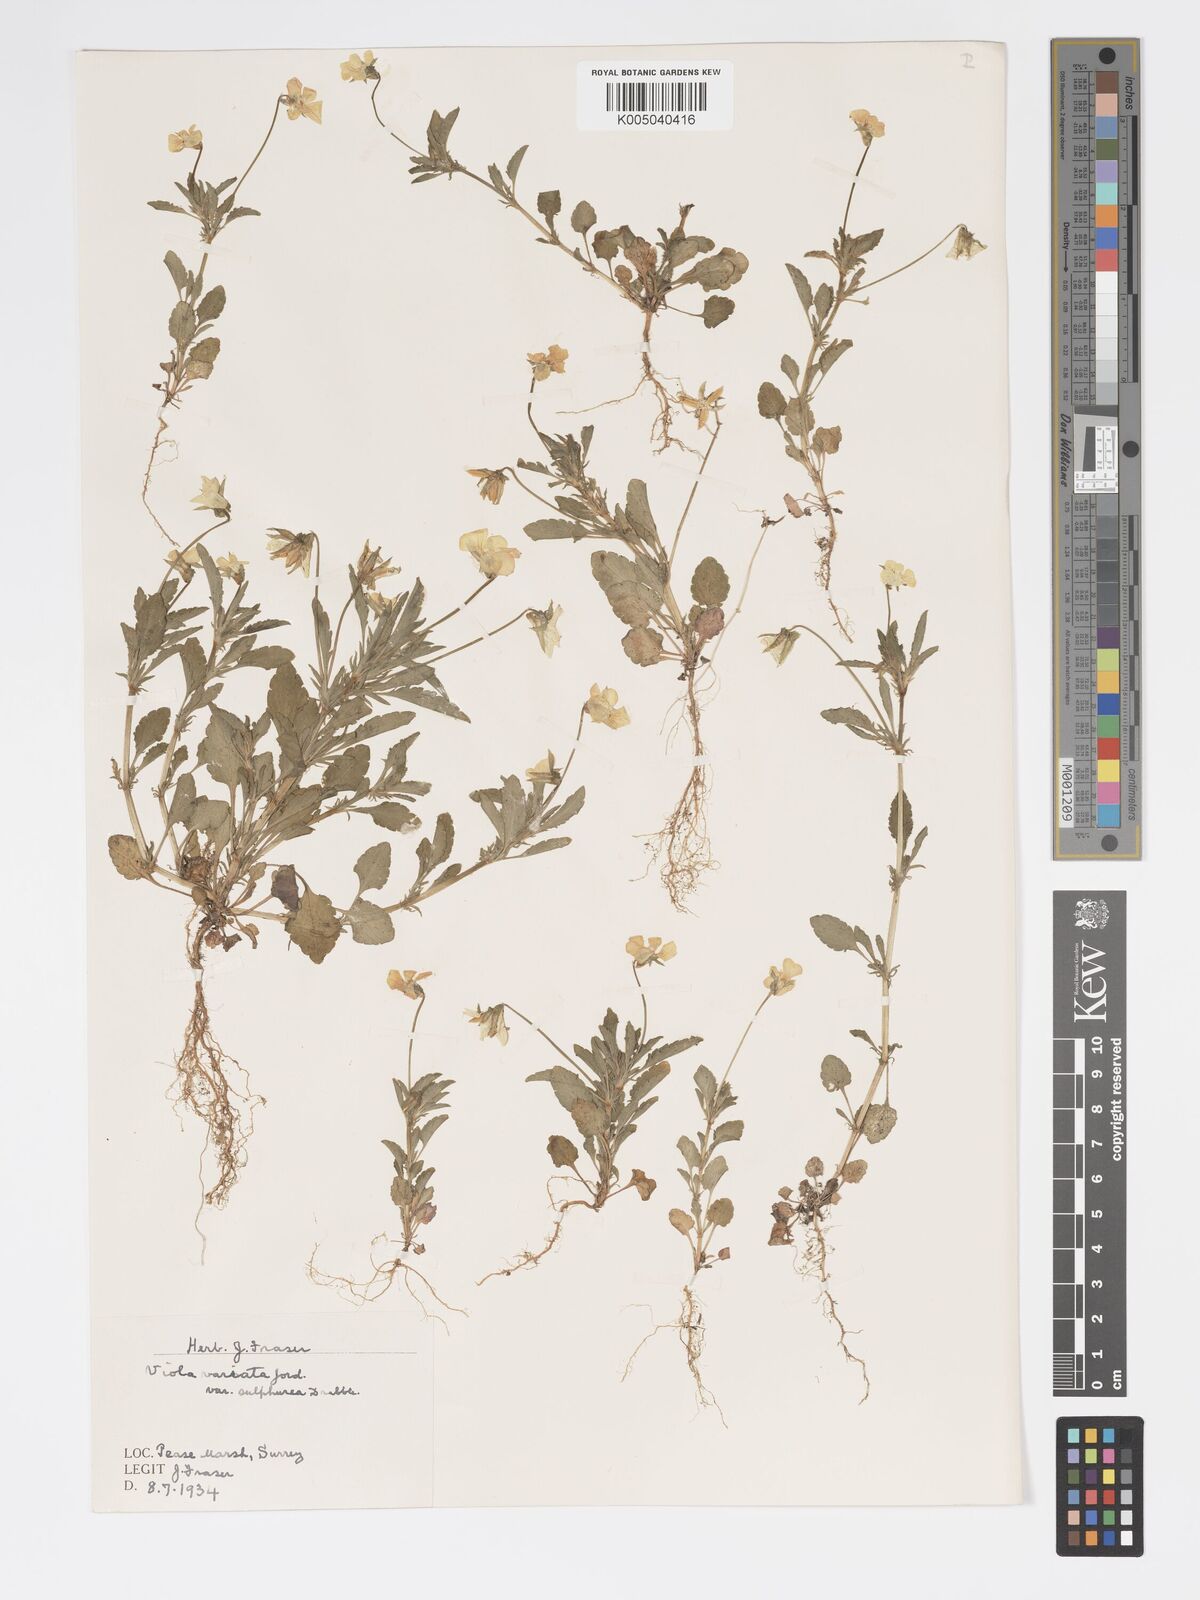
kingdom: Plantae
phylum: Tracheophyta
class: Magnoliopsida
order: Malpighiales
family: Violaceae
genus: Viola
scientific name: Viola arvensis
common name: Field pansy
